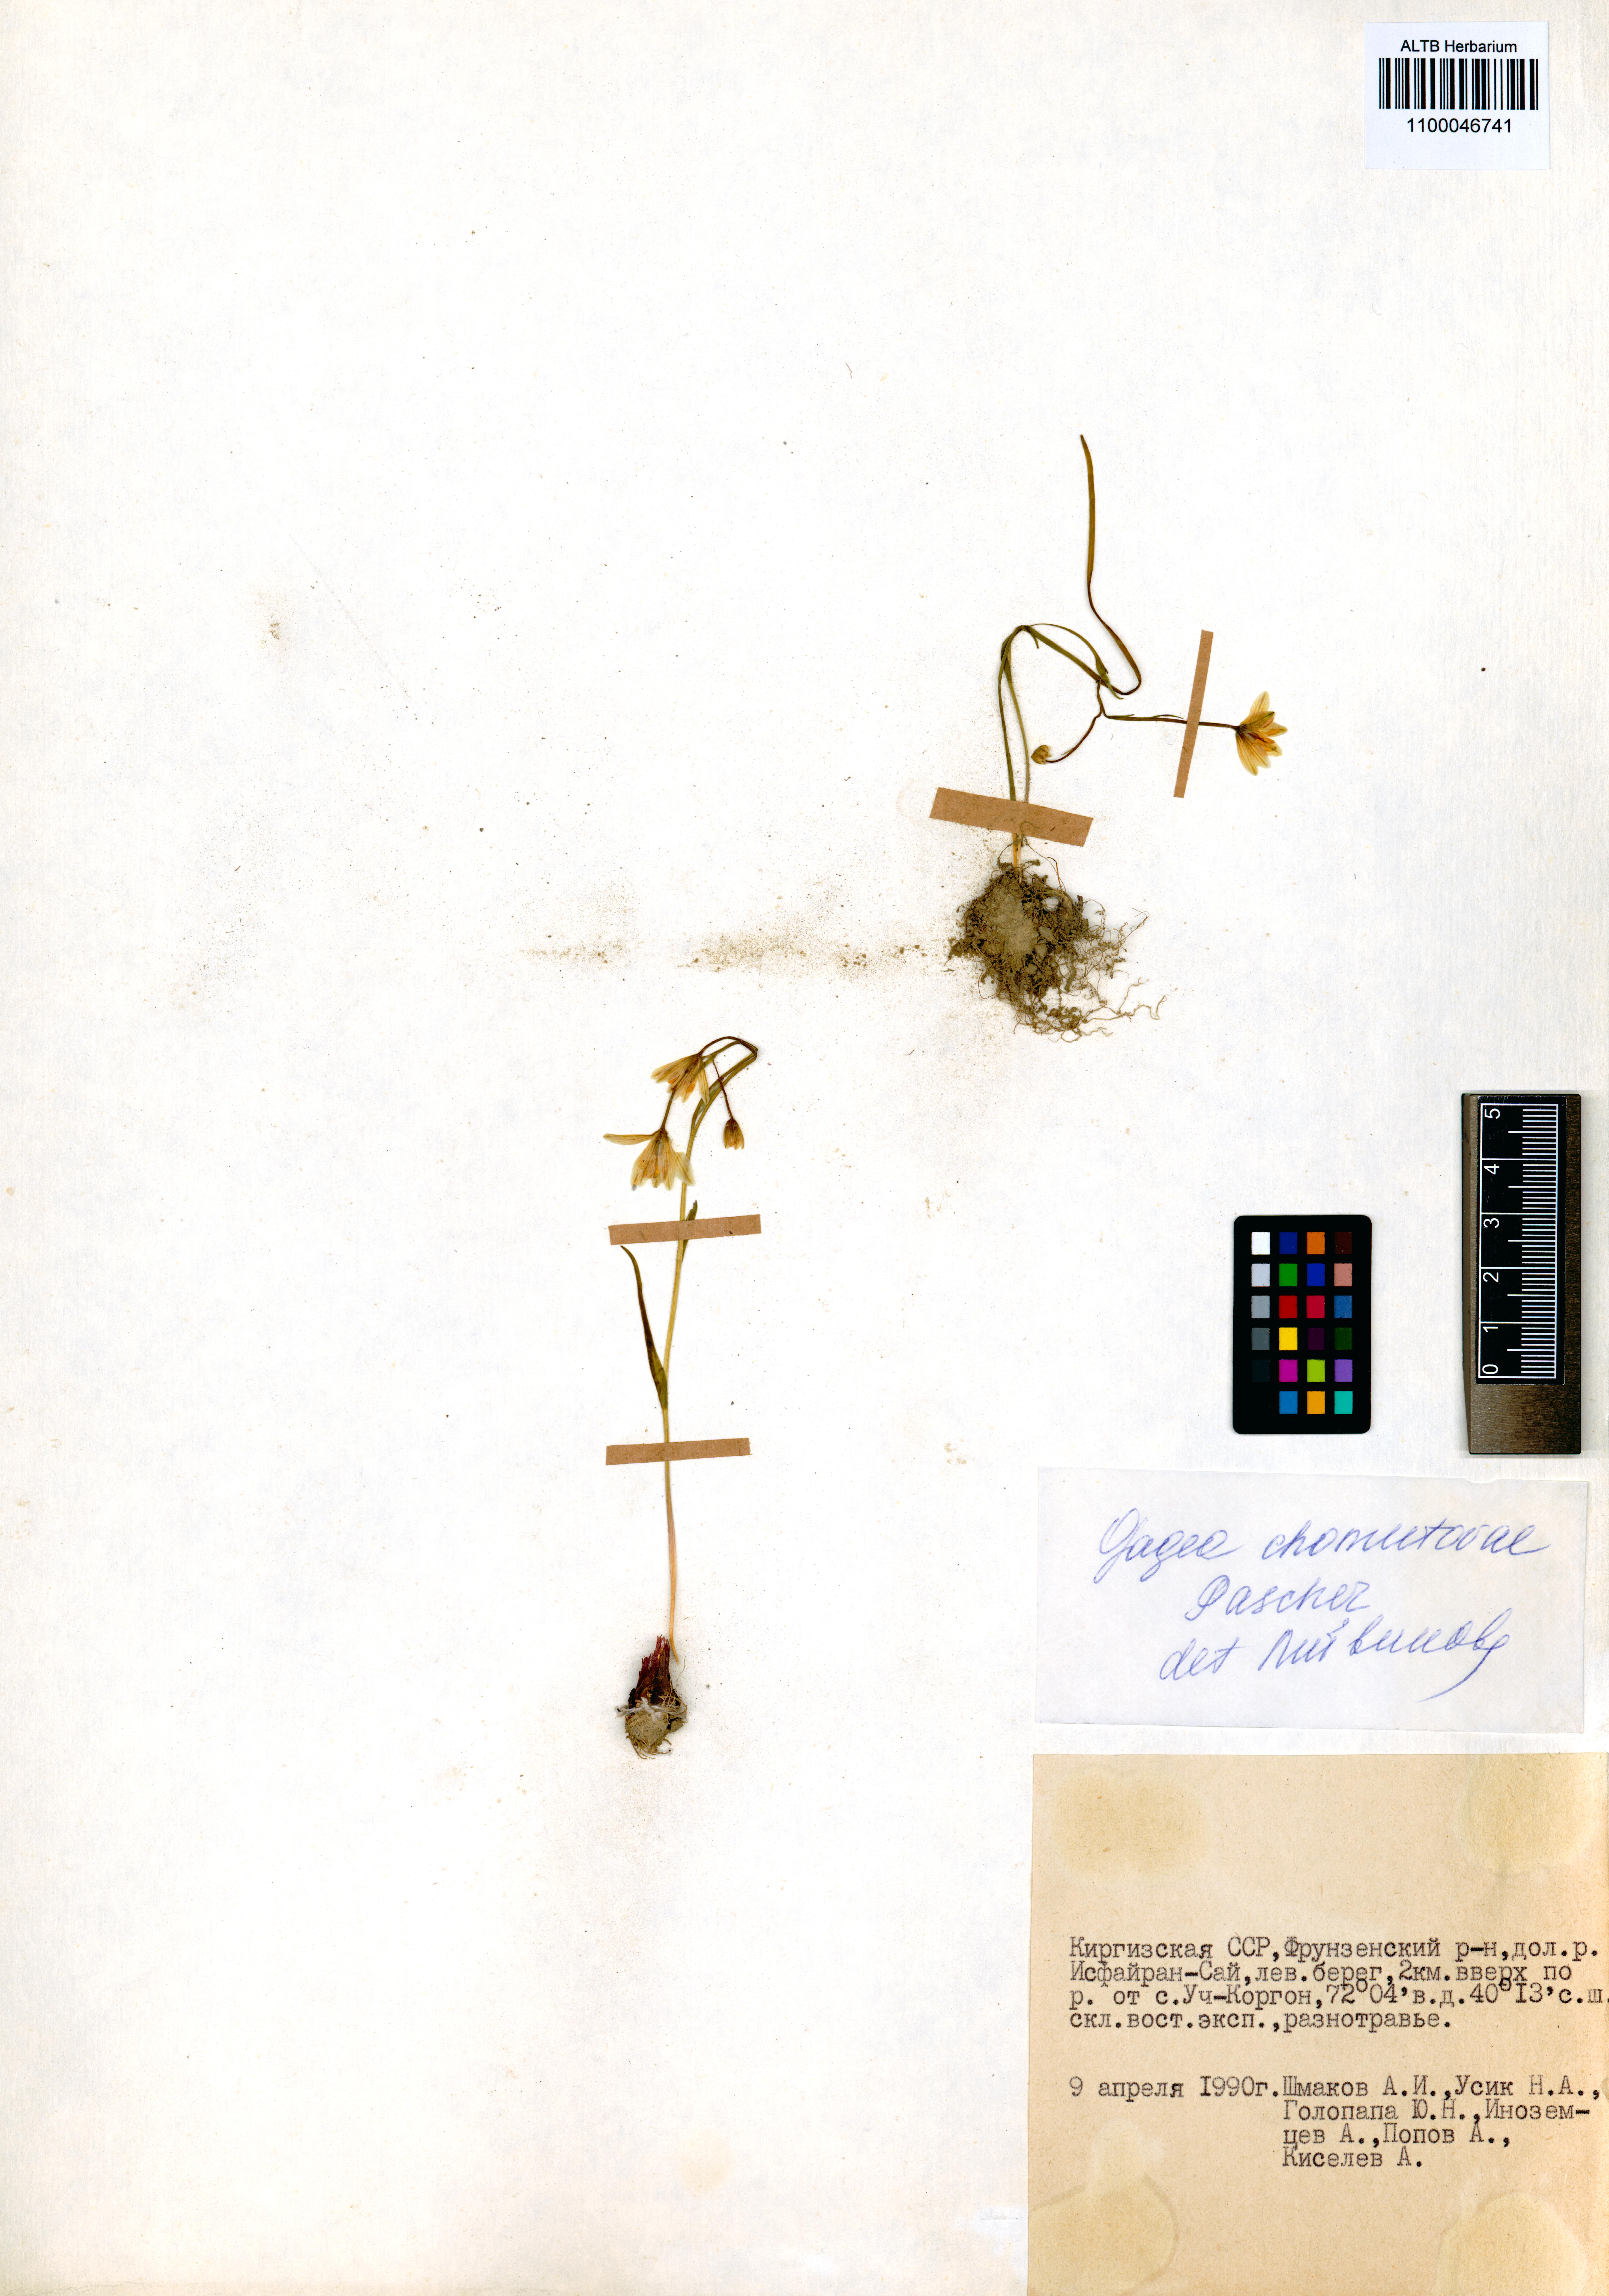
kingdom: Plantae
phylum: Tracheophyta
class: Liliopsida
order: Liliales
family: Liliaceae
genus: Gagea
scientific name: Gagea chomutowae
